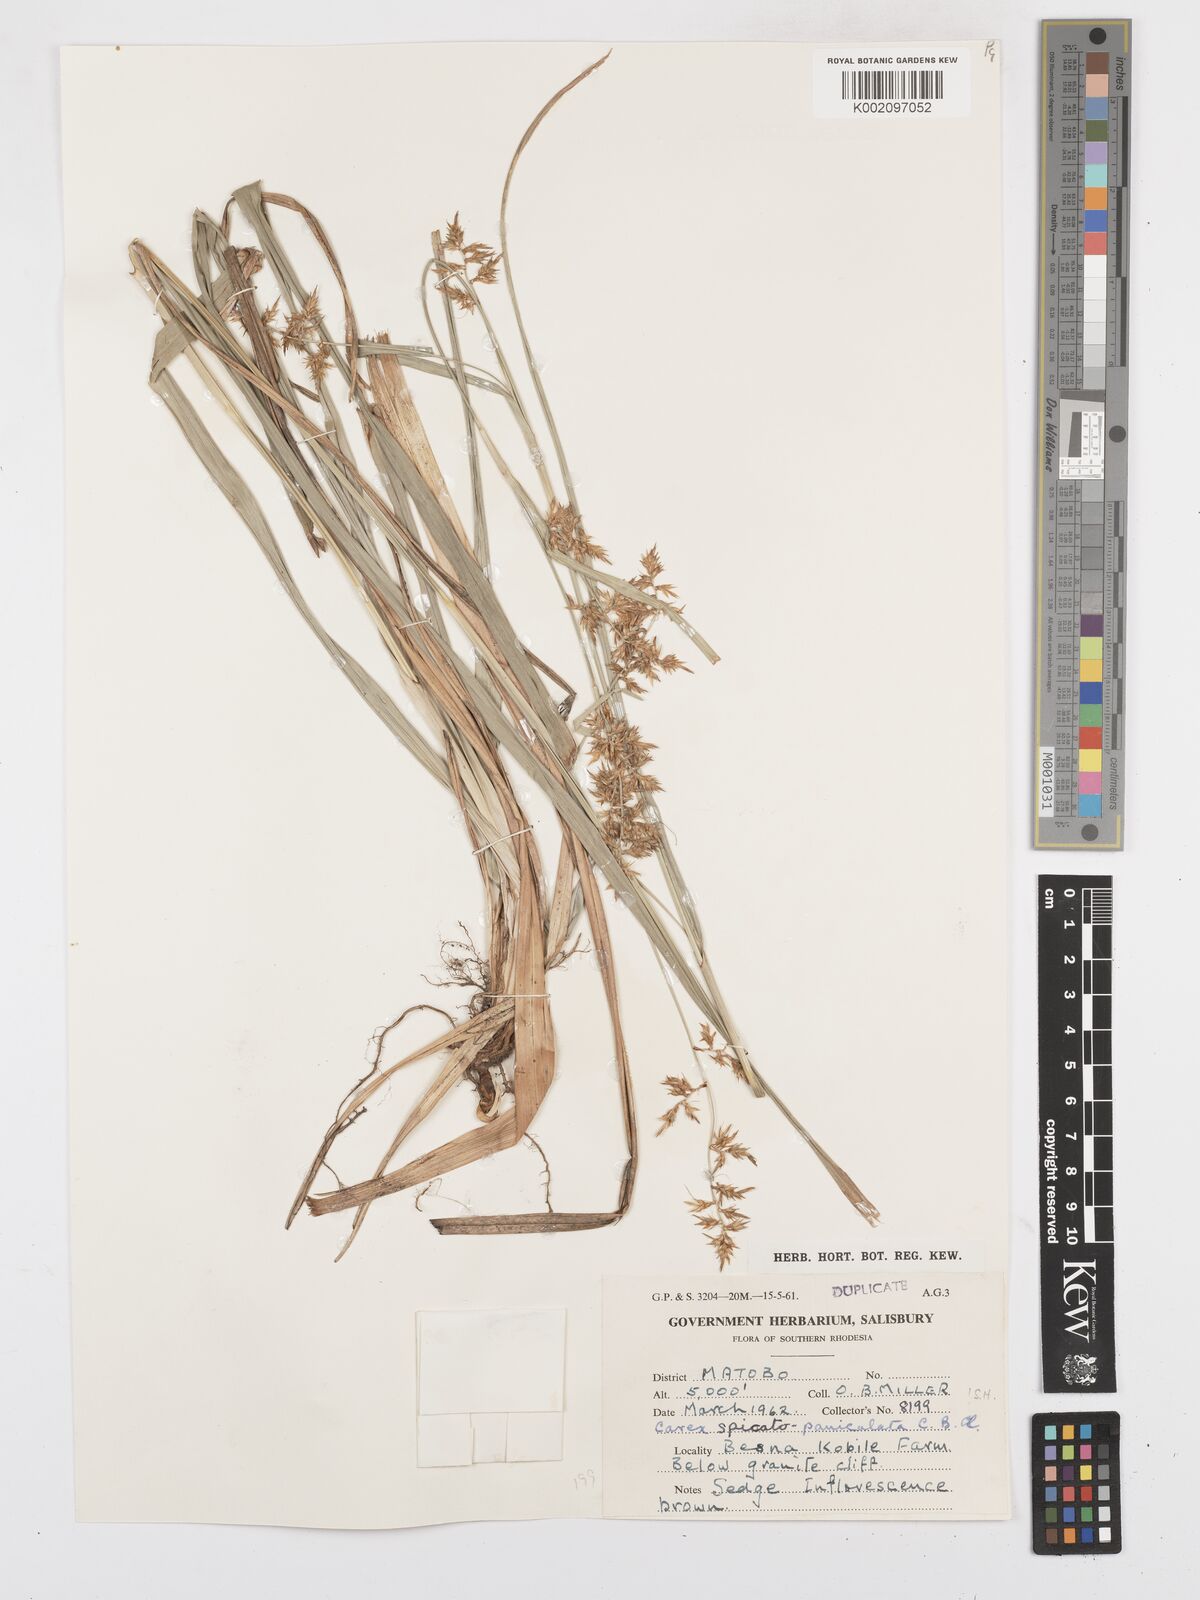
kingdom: Plantae
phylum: Tracheophyta
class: Liliopsida
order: Poales
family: Cyperaceae
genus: Carex
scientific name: Carex spicatopaniculata
